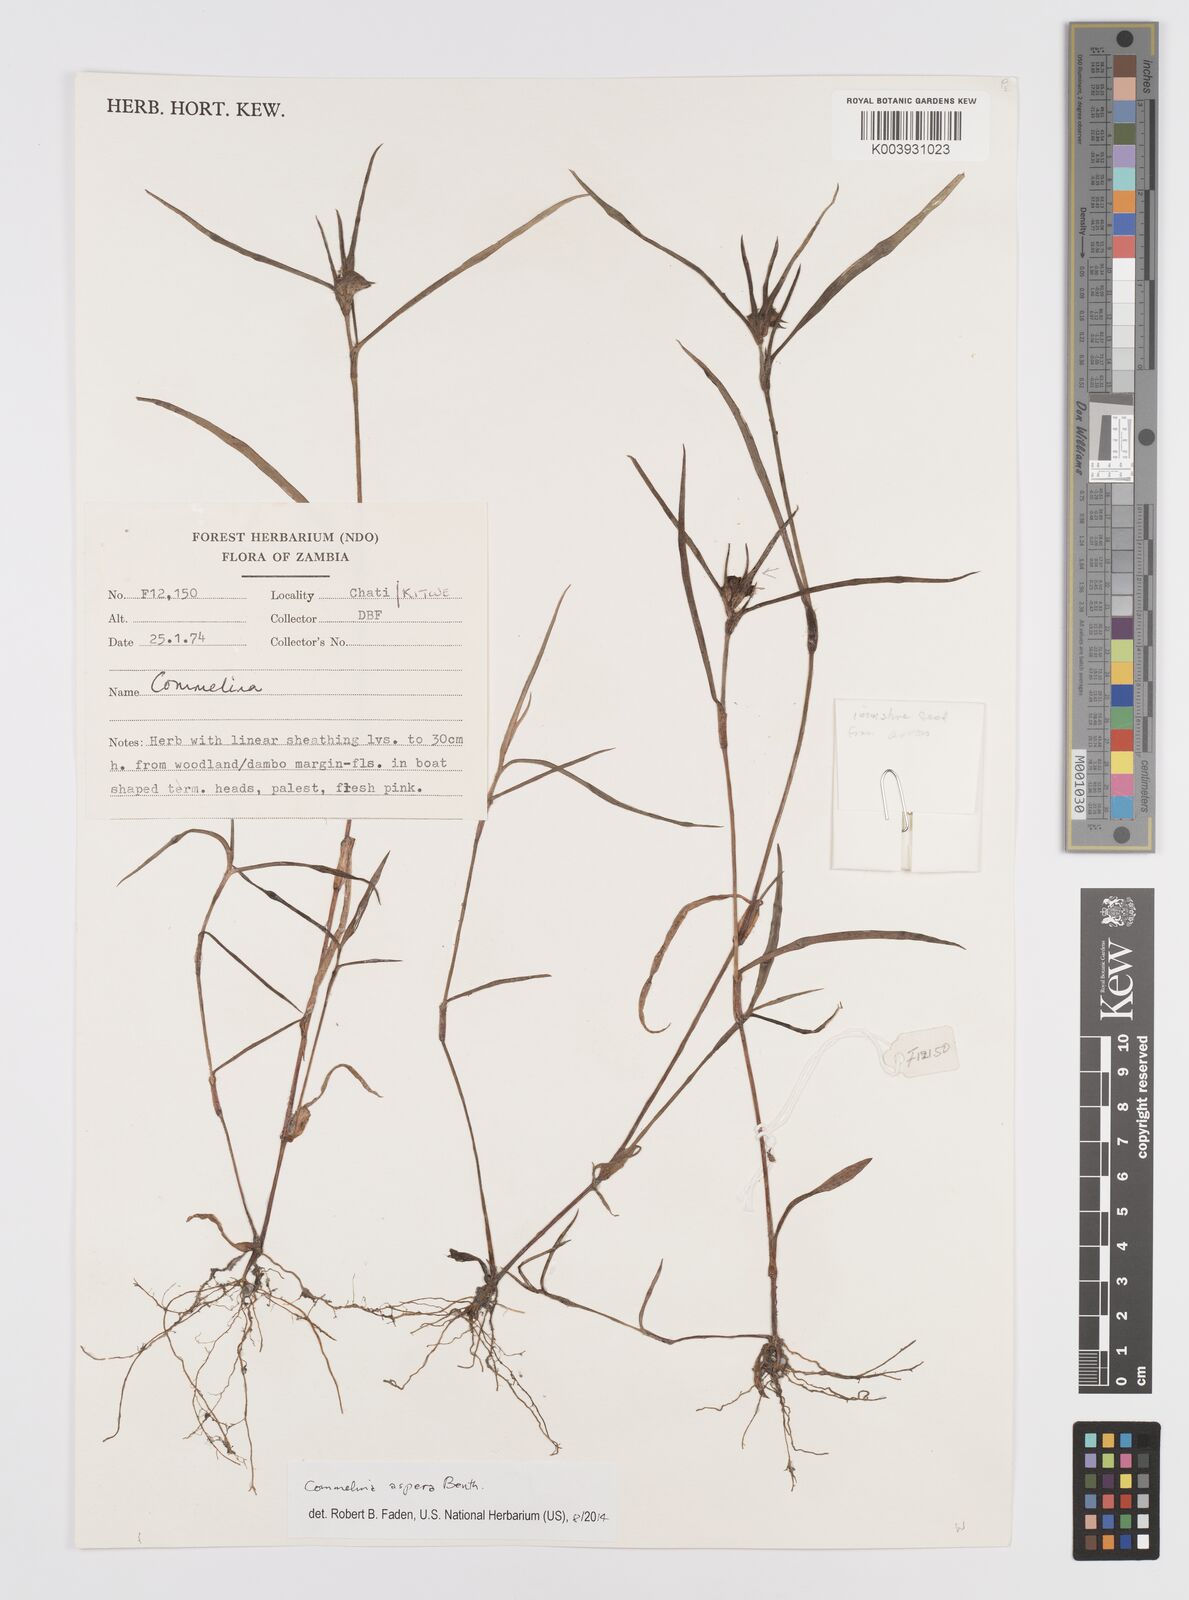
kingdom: Plantae
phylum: Tracheophyta
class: Liliopsida
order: Commelinales
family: Commelinaceae
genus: Commelina
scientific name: Commelina aspera
